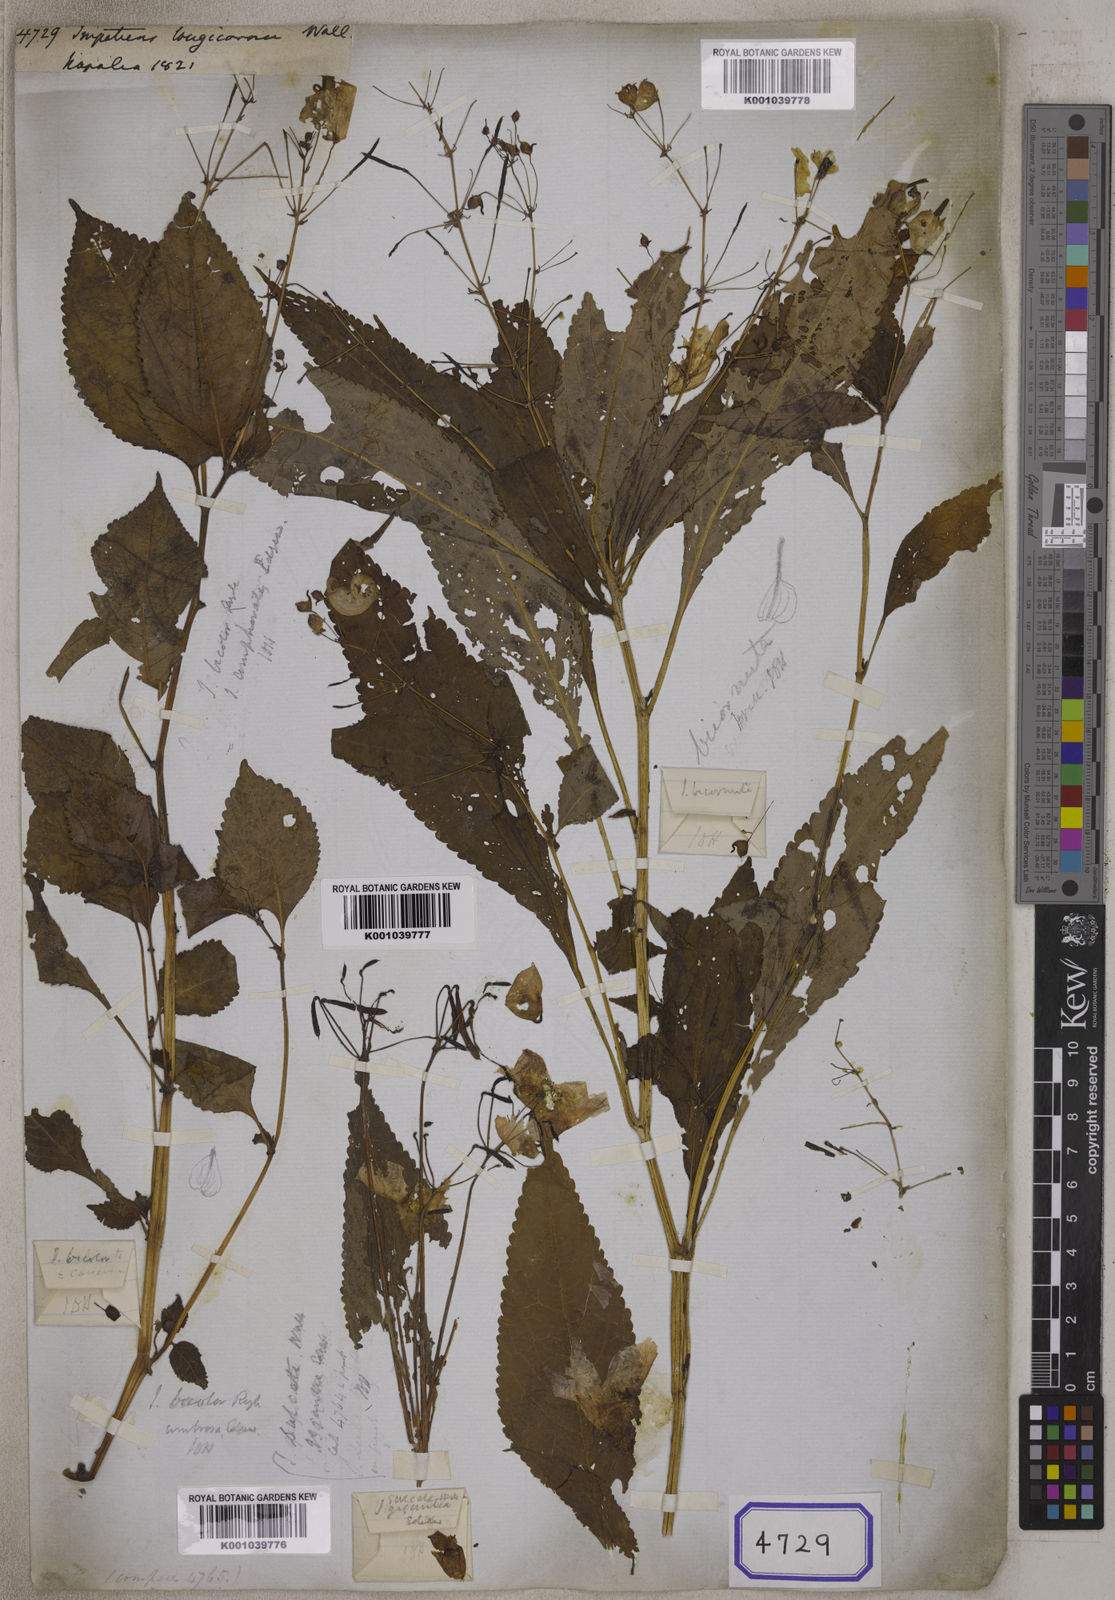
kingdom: Plantae
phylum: Tracheophyta
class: Magnoliopsida
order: Ericales
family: Balsaminaceae
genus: Impatiens
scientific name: Impatiens bicolor
